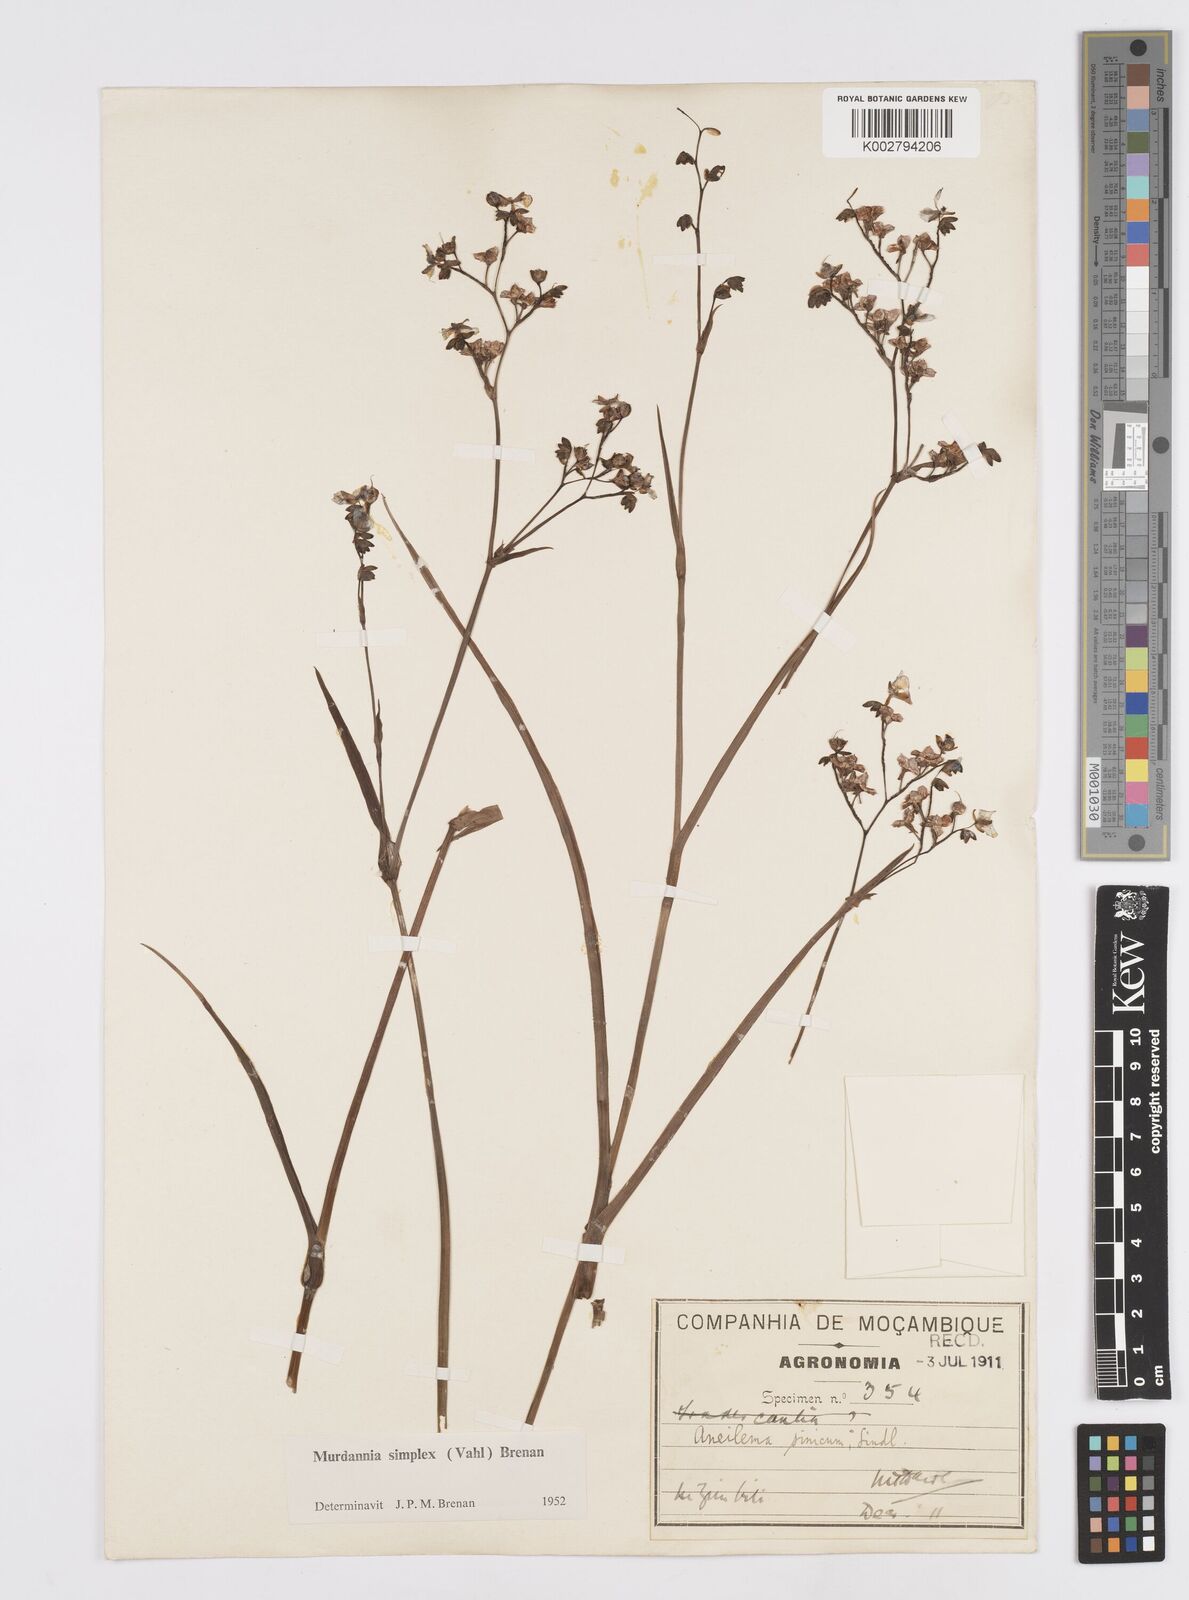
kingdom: Plantae
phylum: Tracheophyta
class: Liliopsida
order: Commelinales
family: Commelinaceae
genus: Murdannia
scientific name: Murdannia simplex
